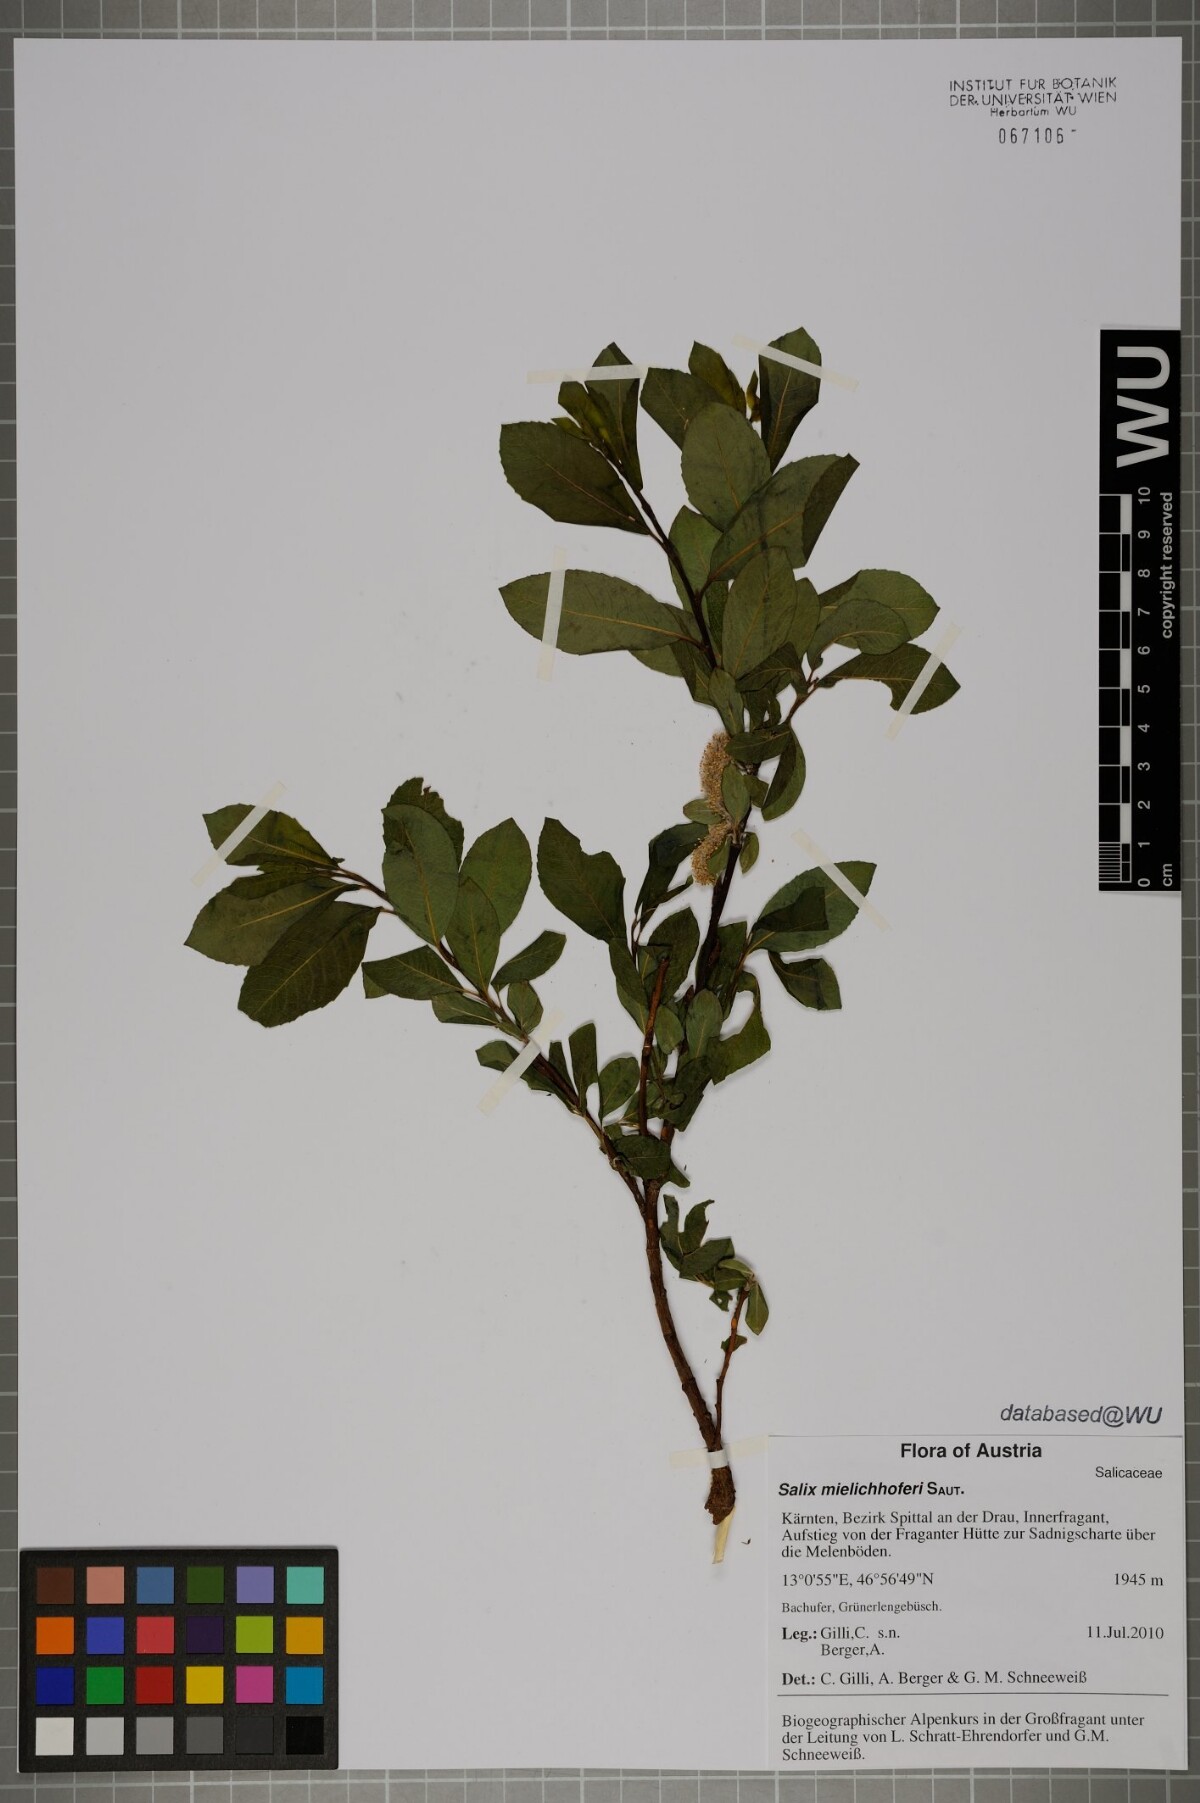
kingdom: Plantae
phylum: Tracheophyta
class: Magnoliopsida
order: Malpighiales
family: Salicaceae
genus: Salix
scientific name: Salix mielichhoferi
